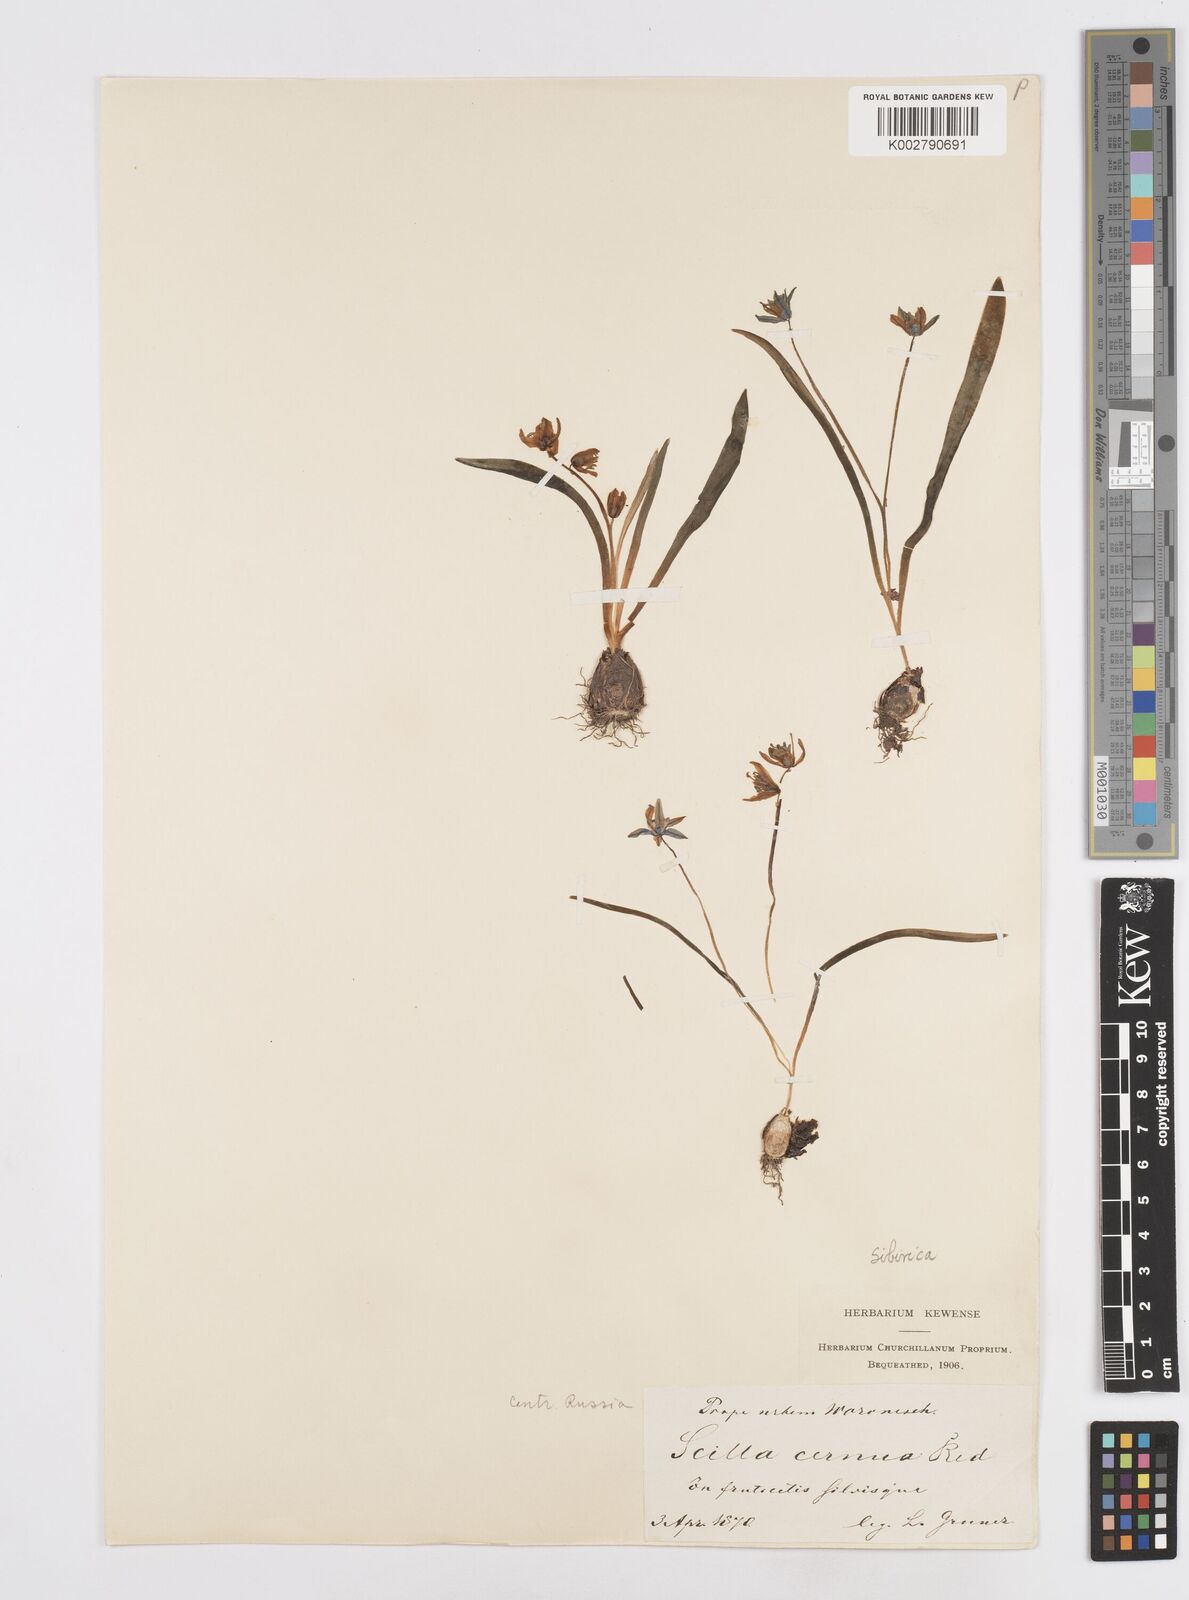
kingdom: Plantae
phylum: Tracheophyta
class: Liliopsida
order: Asparagales
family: Asparagaceae
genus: Scilla
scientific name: Scilla siberica
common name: Siberian squill
